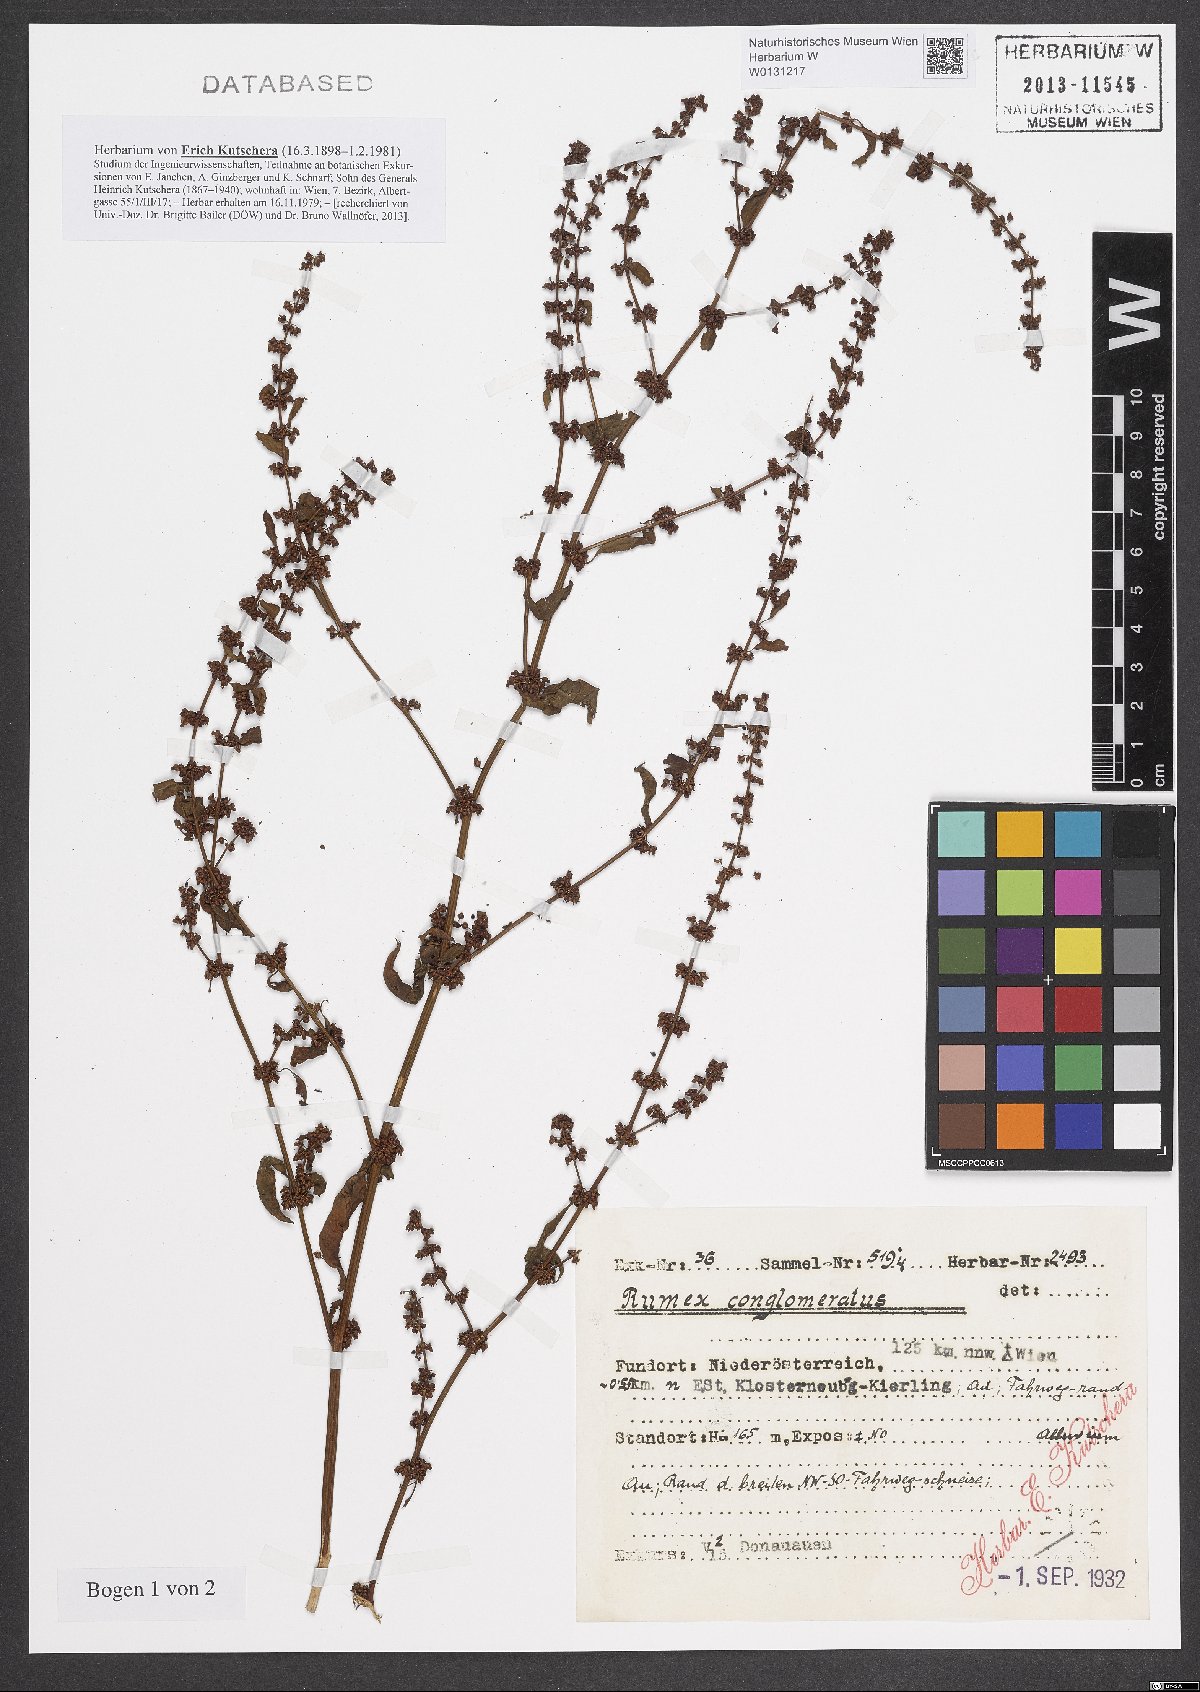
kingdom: Plantae
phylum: Tracheophyta
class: Magnoliopsida
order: Caryophyllales
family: Polygonaceae
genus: Rumex
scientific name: Rumex conglomeratus
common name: Clustered dock
